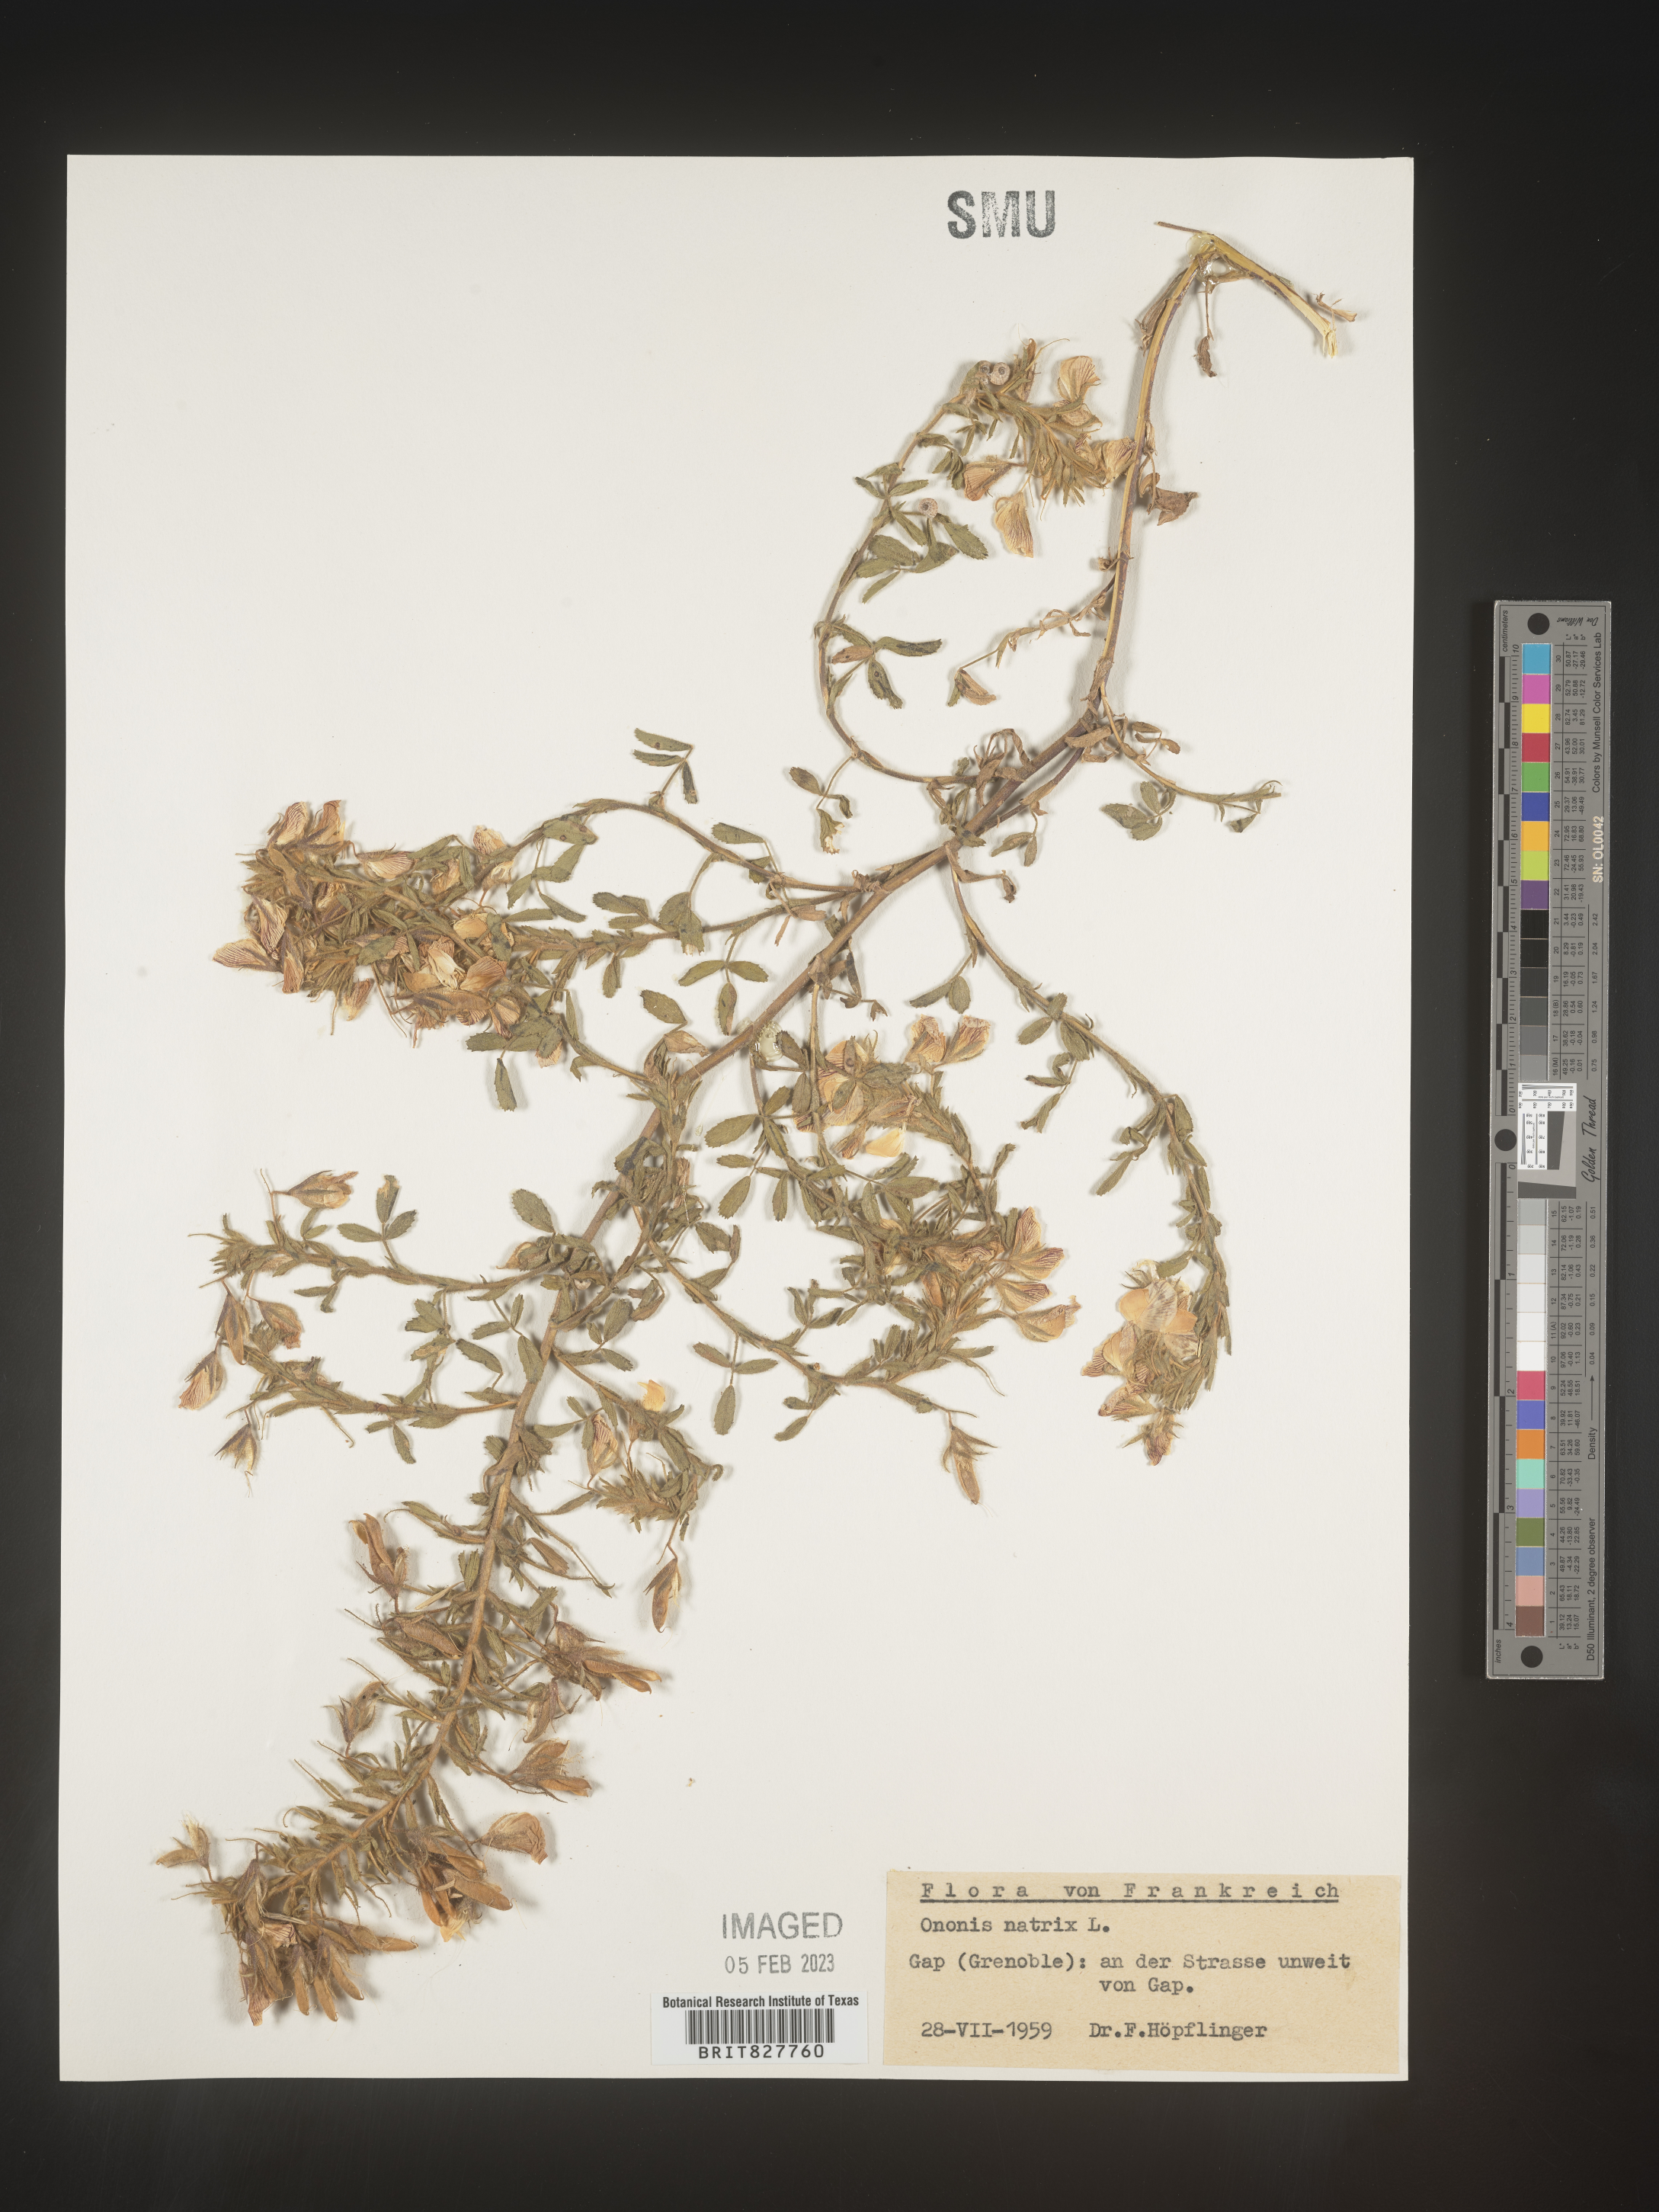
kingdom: Plantae
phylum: Tracheophyta
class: Magnoliopsida
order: Fabales
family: Fabaceae
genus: Ononis
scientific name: Ononis
